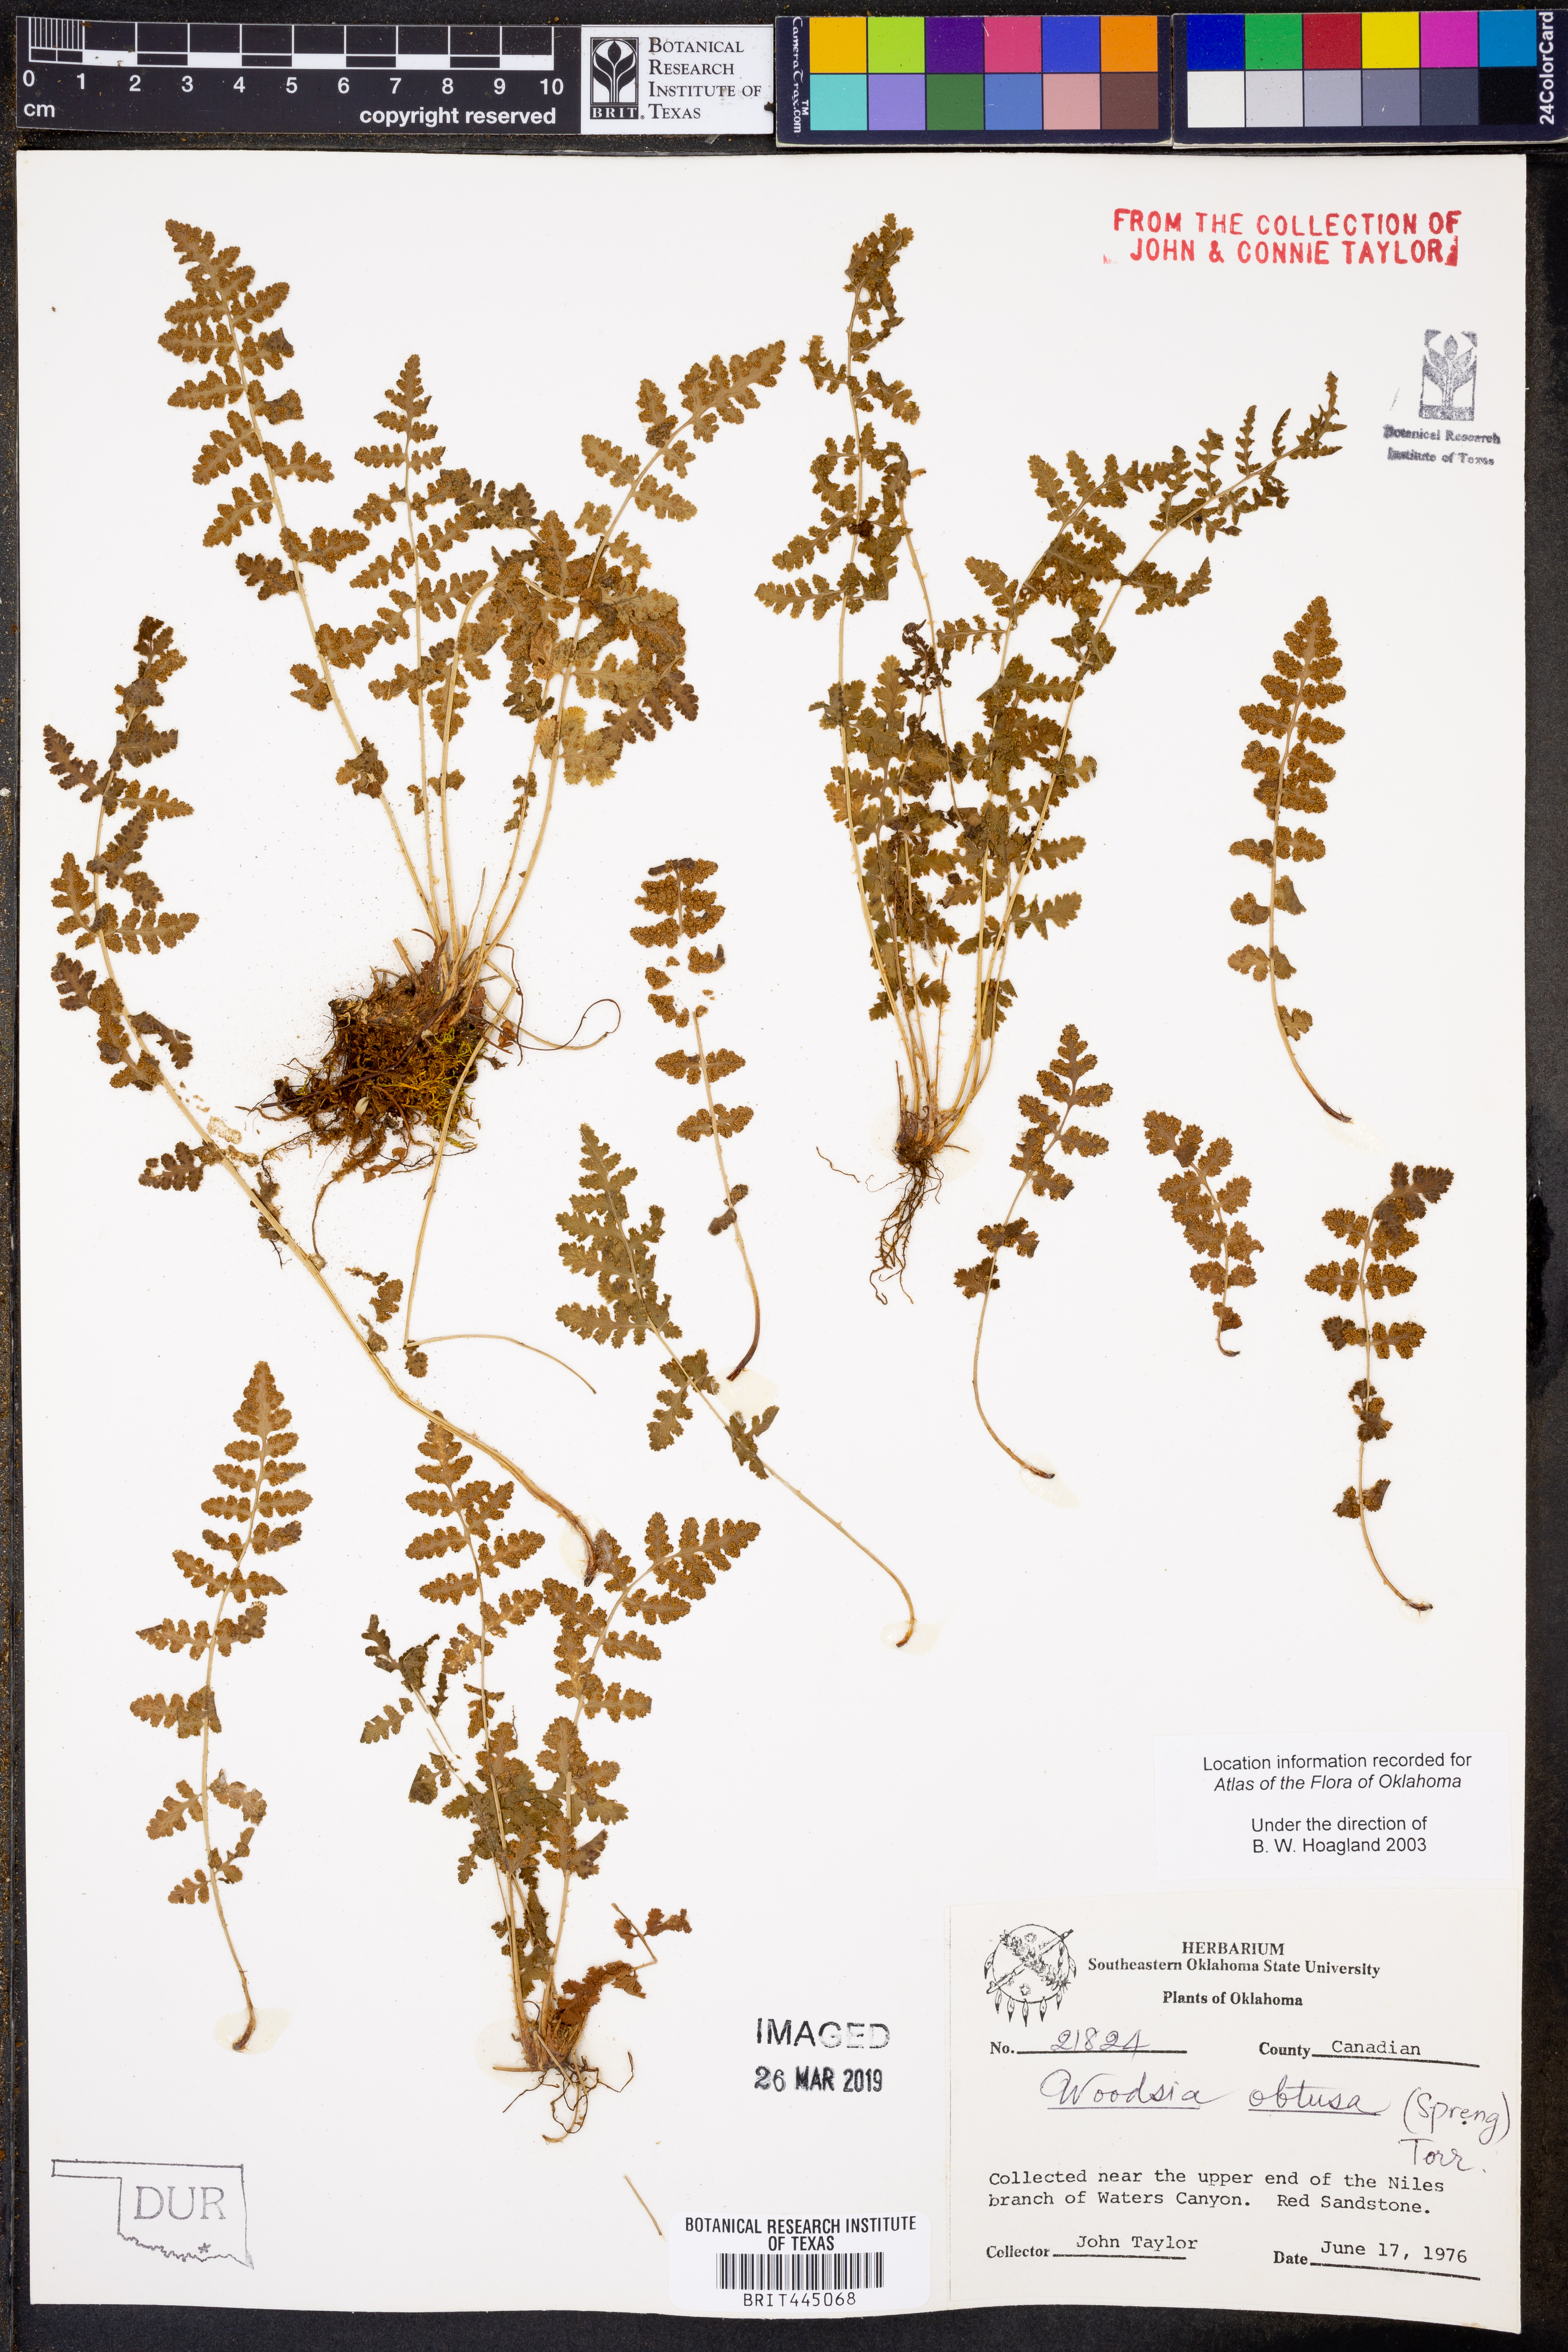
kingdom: Plantae
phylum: Tracheophyta
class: Polypodiopsida
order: Polypodiales
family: Woodsiaceae
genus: Physematium
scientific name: Physematium obtusum
